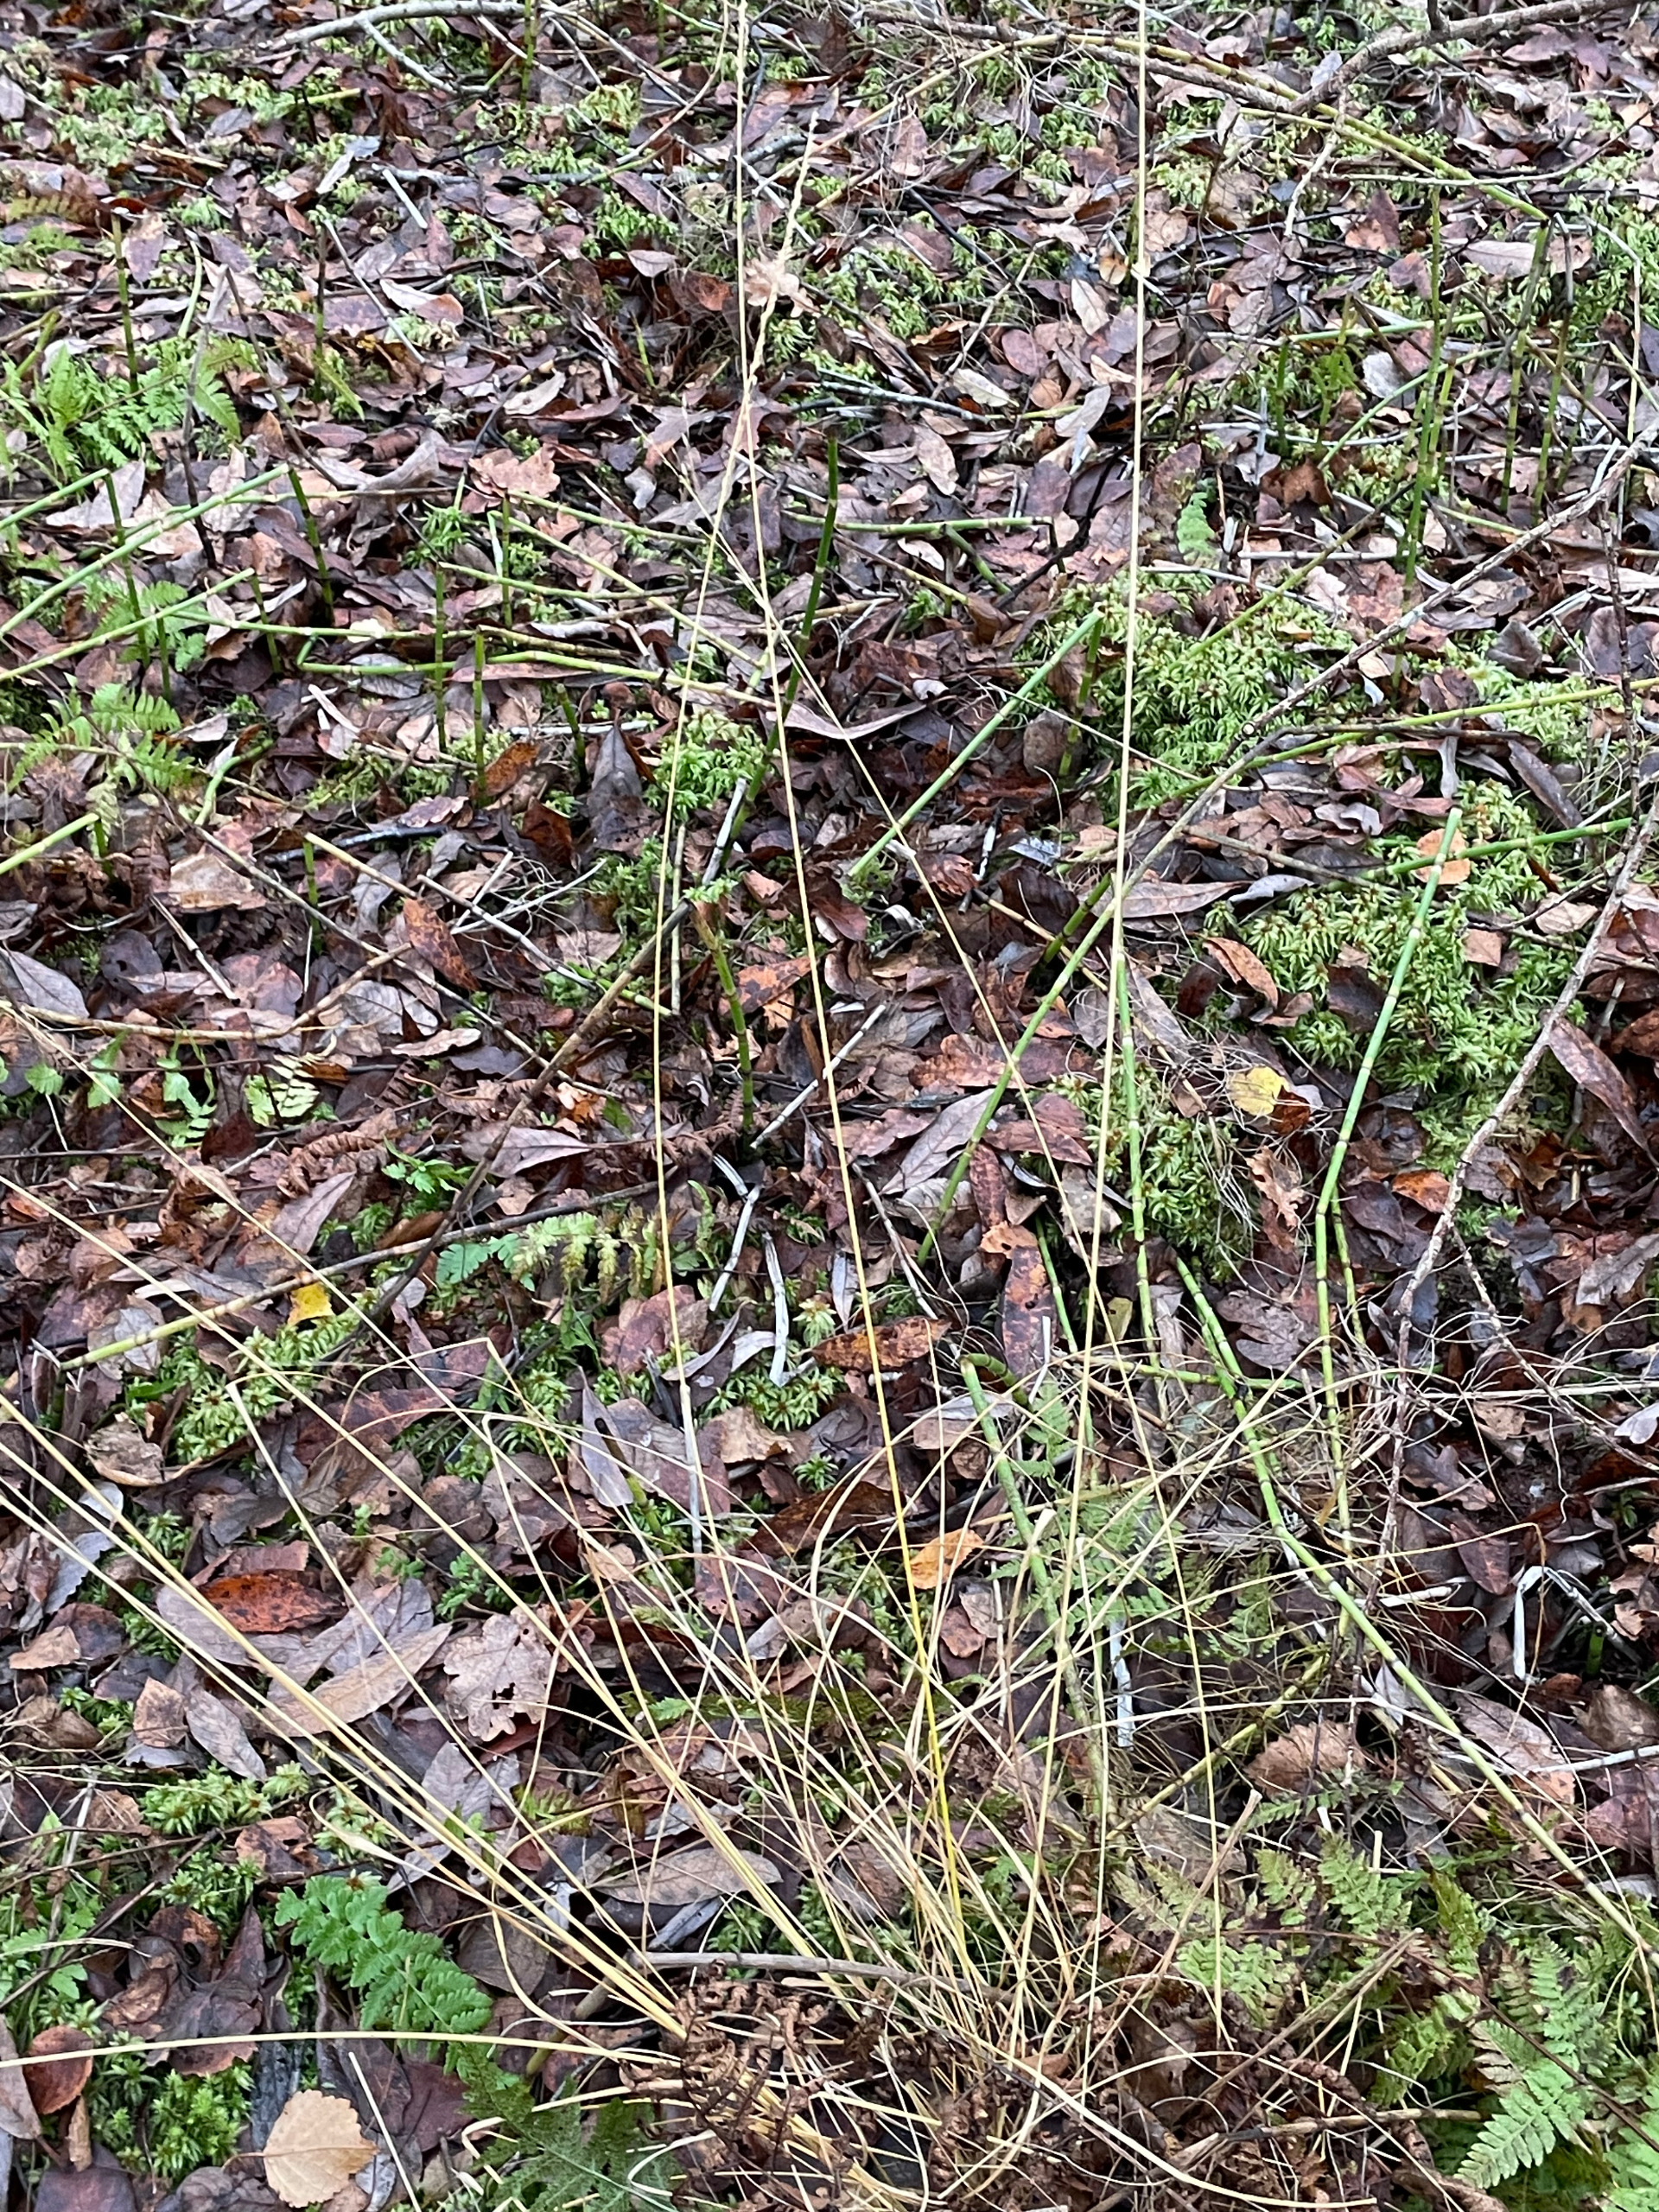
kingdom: Plantae
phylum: Tracheophyta
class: Liliopsida
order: Poales
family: Poaceae
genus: Molinia
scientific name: Molinia caerulea
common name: Blåtop
